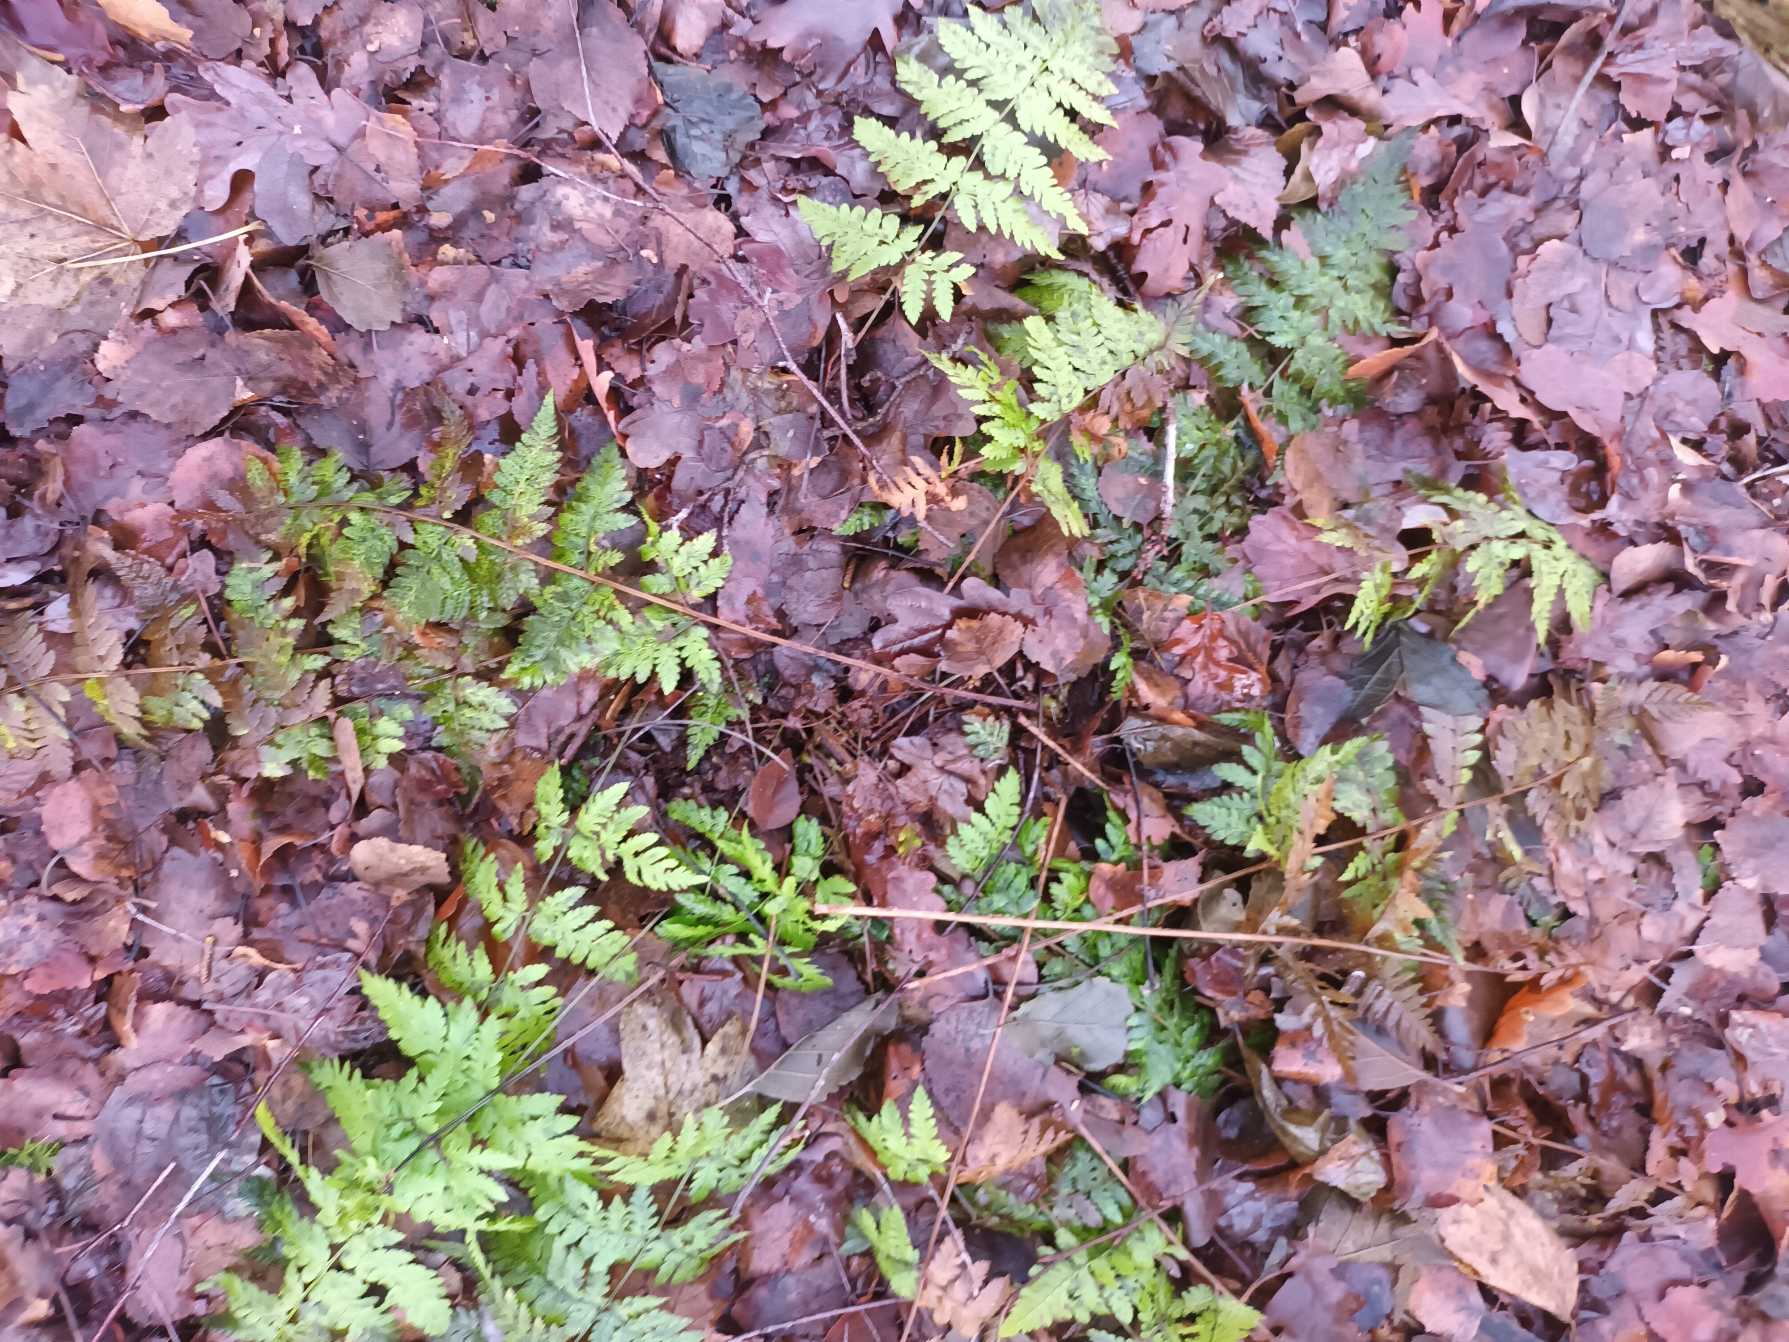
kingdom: Plantae
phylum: Tracheophyta
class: Polypodiopsida
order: Polypodiales
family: Dryopteridaceae
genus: Dryopteris
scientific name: Dryopteris carthusiana
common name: Smalbladet mangeløv
